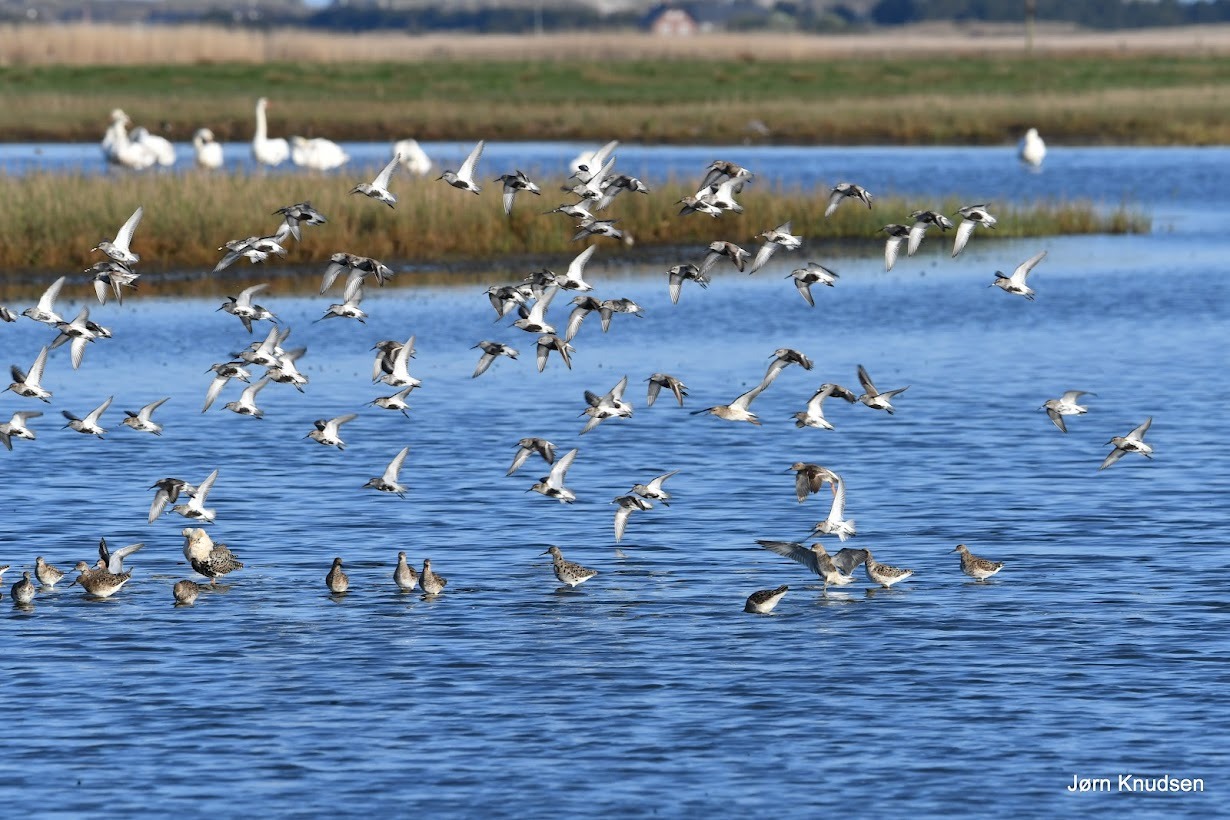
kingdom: Animalia
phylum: Chordata
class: Aves
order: Charadriiformes
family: Scolopacidae
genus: Calidris
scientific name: Calidris alpina
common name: Almindelig ryle
